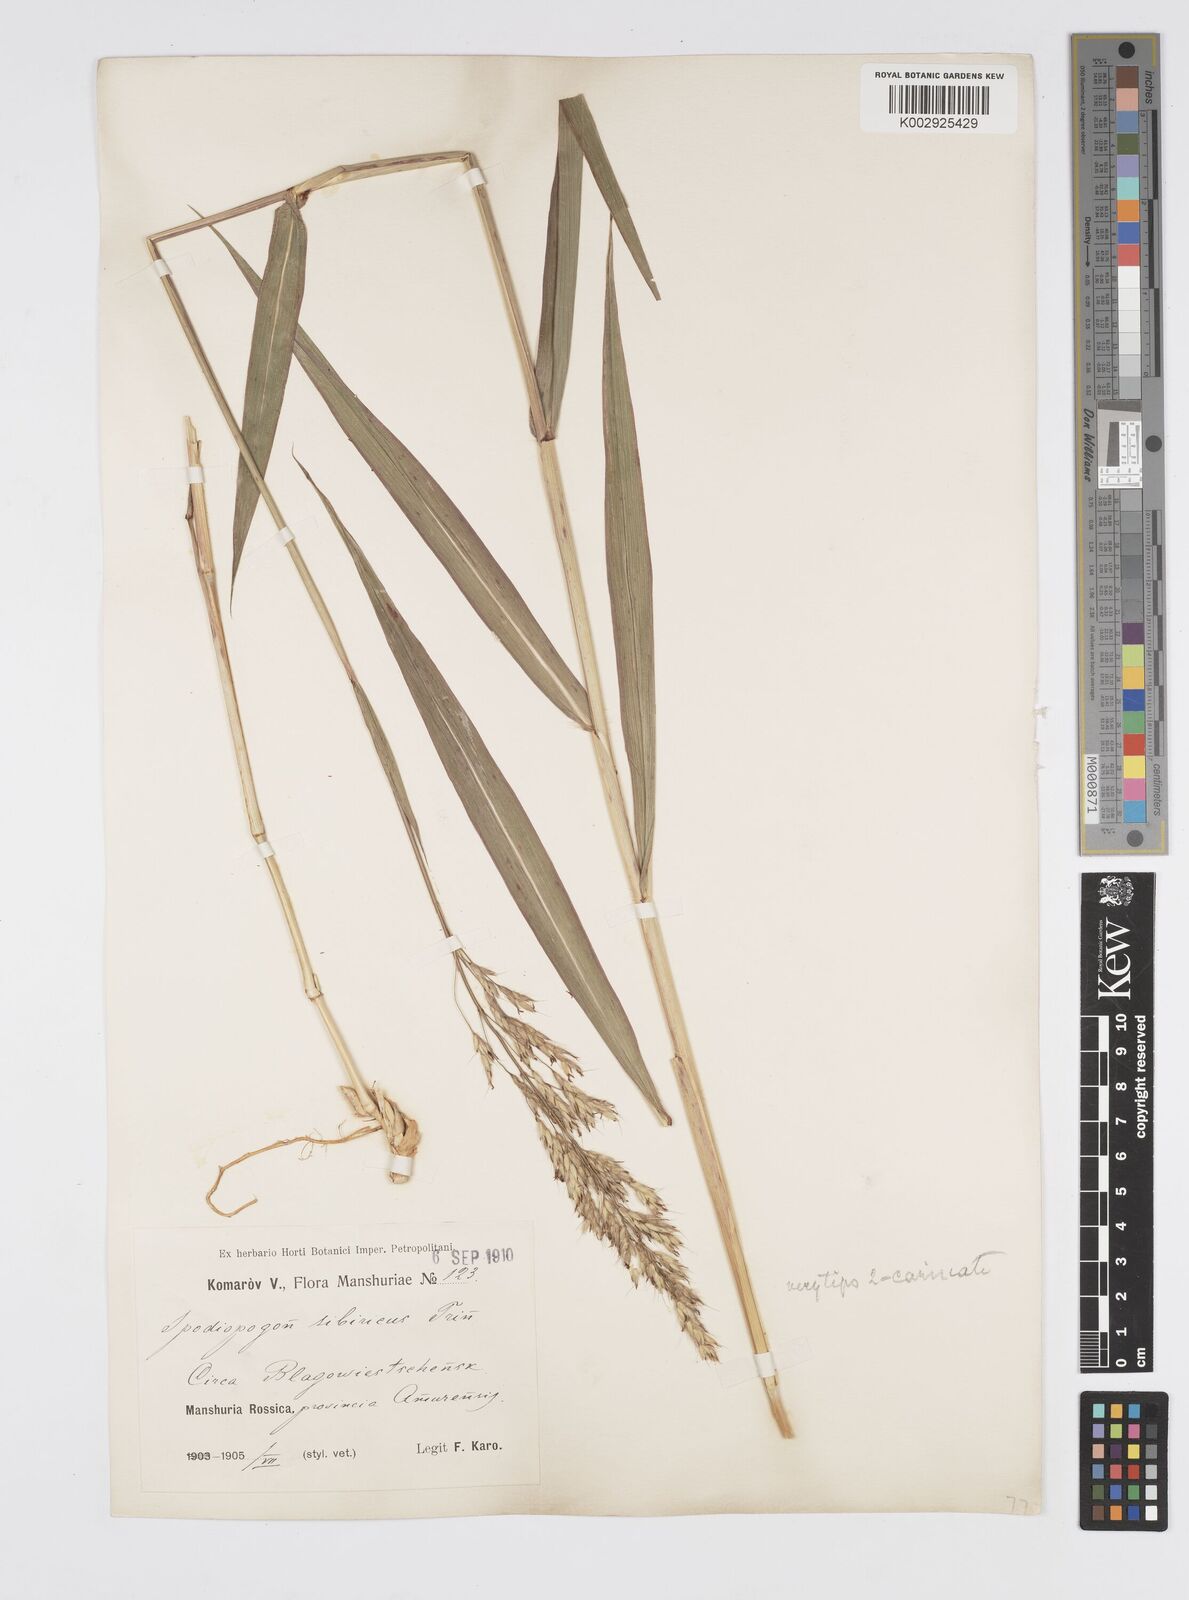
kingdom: Plantae
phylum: Tracheophyta
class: Liliopsida
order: Poales
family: Poaceae
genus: Spodiopogon
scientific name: Spodiopogon sibiricus
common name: Siberian graybeard
